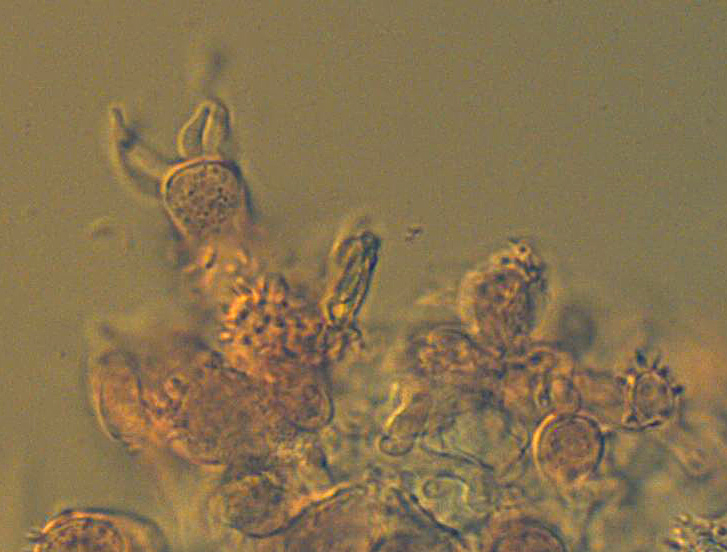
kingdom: Fungi
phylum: Basidiomycota
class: Agaricomycetes
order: Russulales
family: Stereaceae
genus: Acanthobasidium
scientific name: Acanthobasidium delicatum
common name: tagrør-skiveskorpe
